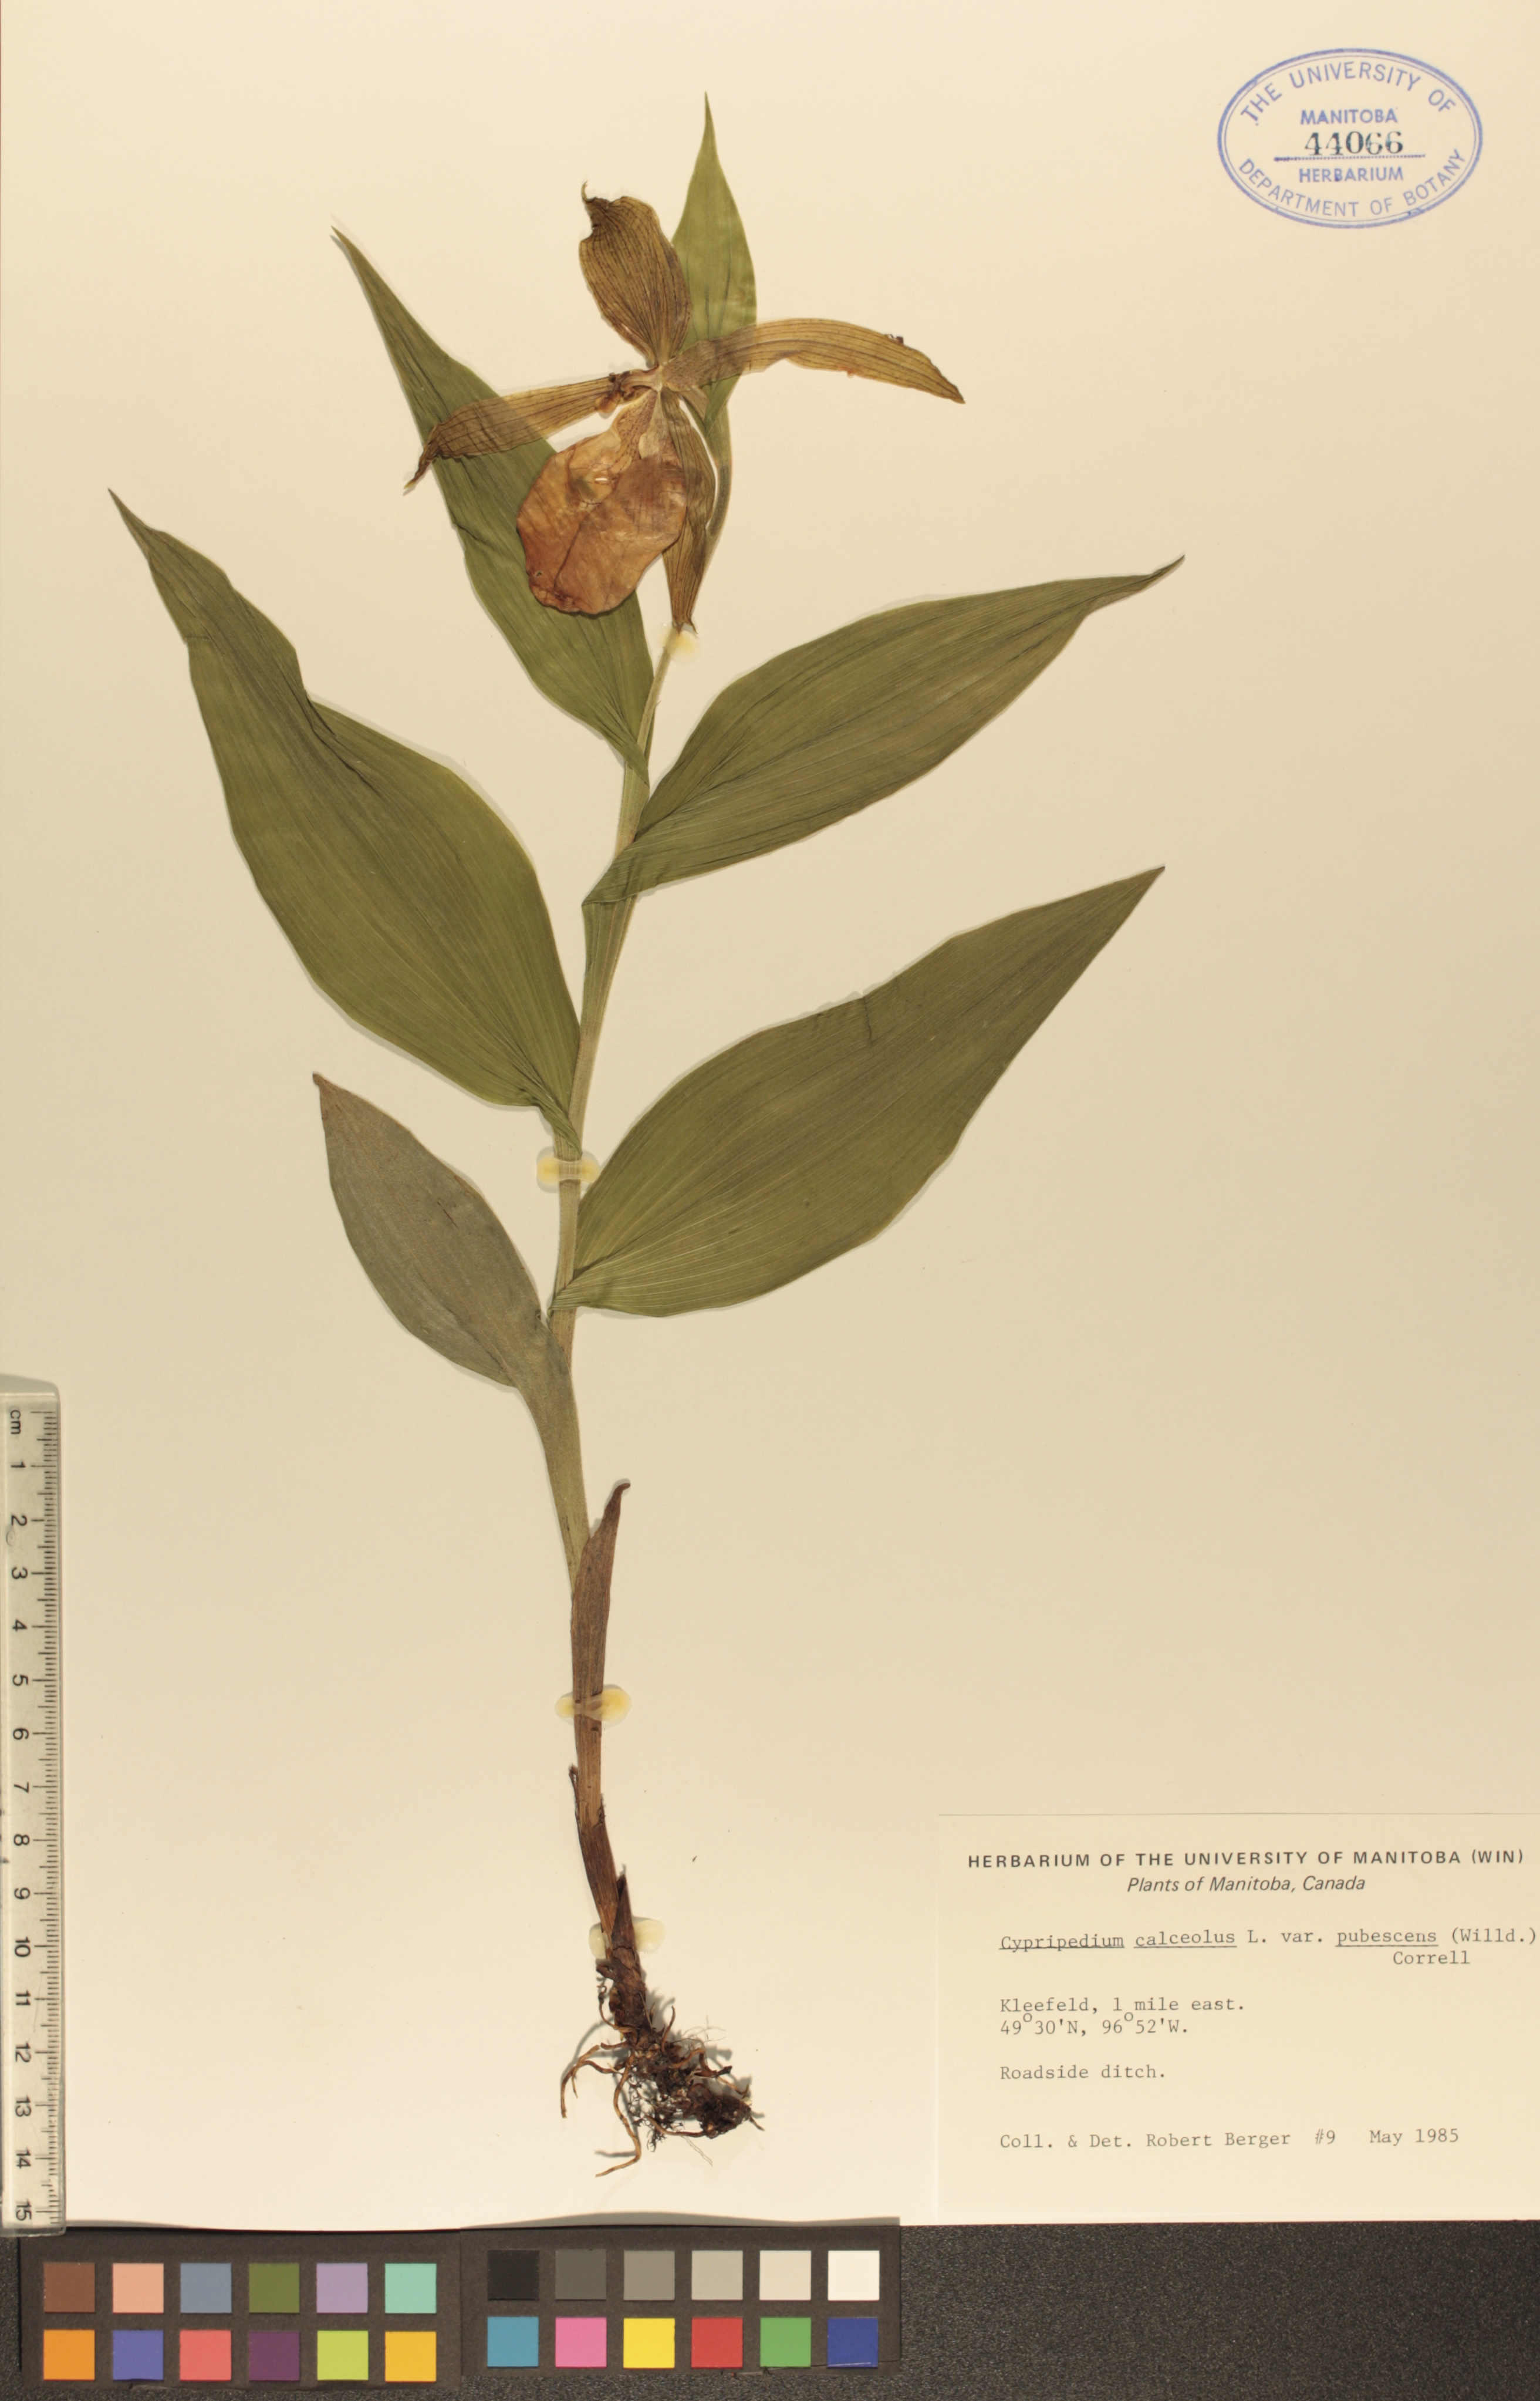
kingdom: Plantae
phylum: Tracheophyta
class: Liliopsida
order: Asparagales
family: Orchidaceae
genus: Cypripedium
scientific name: Cypripedium parviflorum
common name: American yellow lady's-slipper
